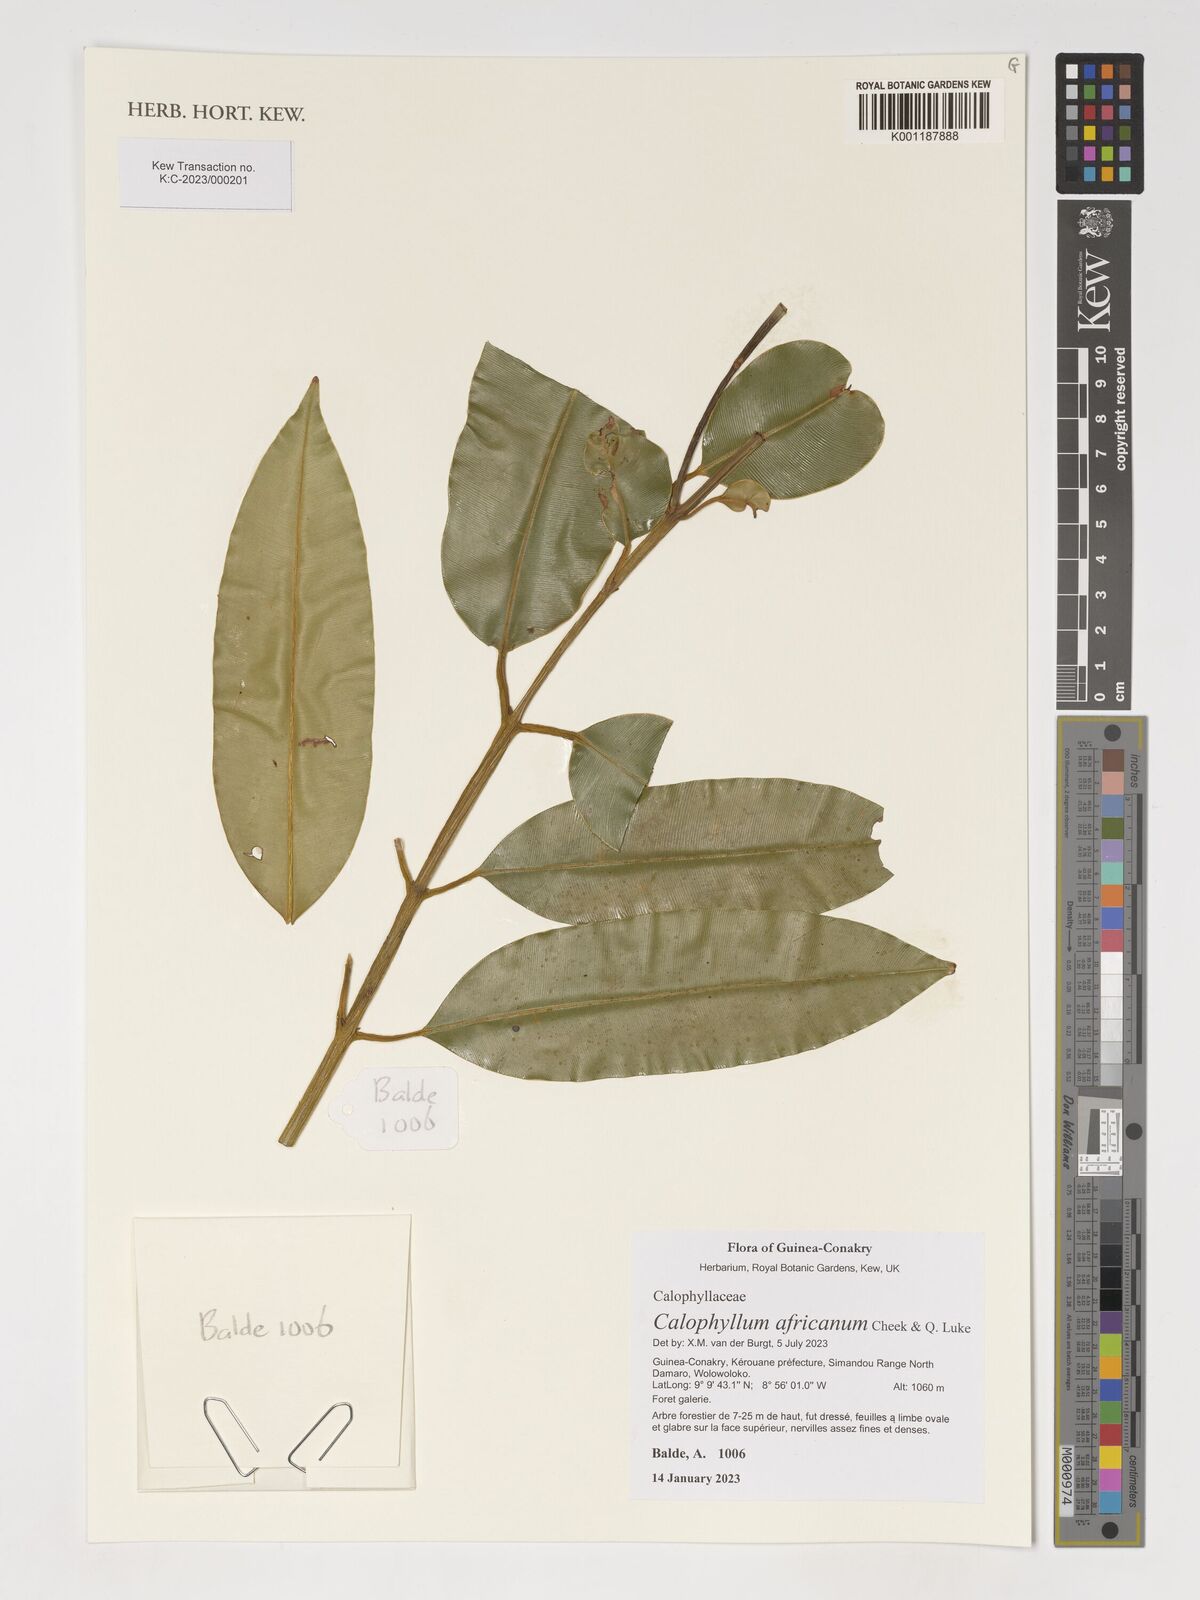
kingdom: Plantae
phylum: Tracheophyta
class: Magnoliopsida
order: Malpighiales
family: Calophyllaceae
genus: Calophyllum
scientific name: Calophyllum africanum
